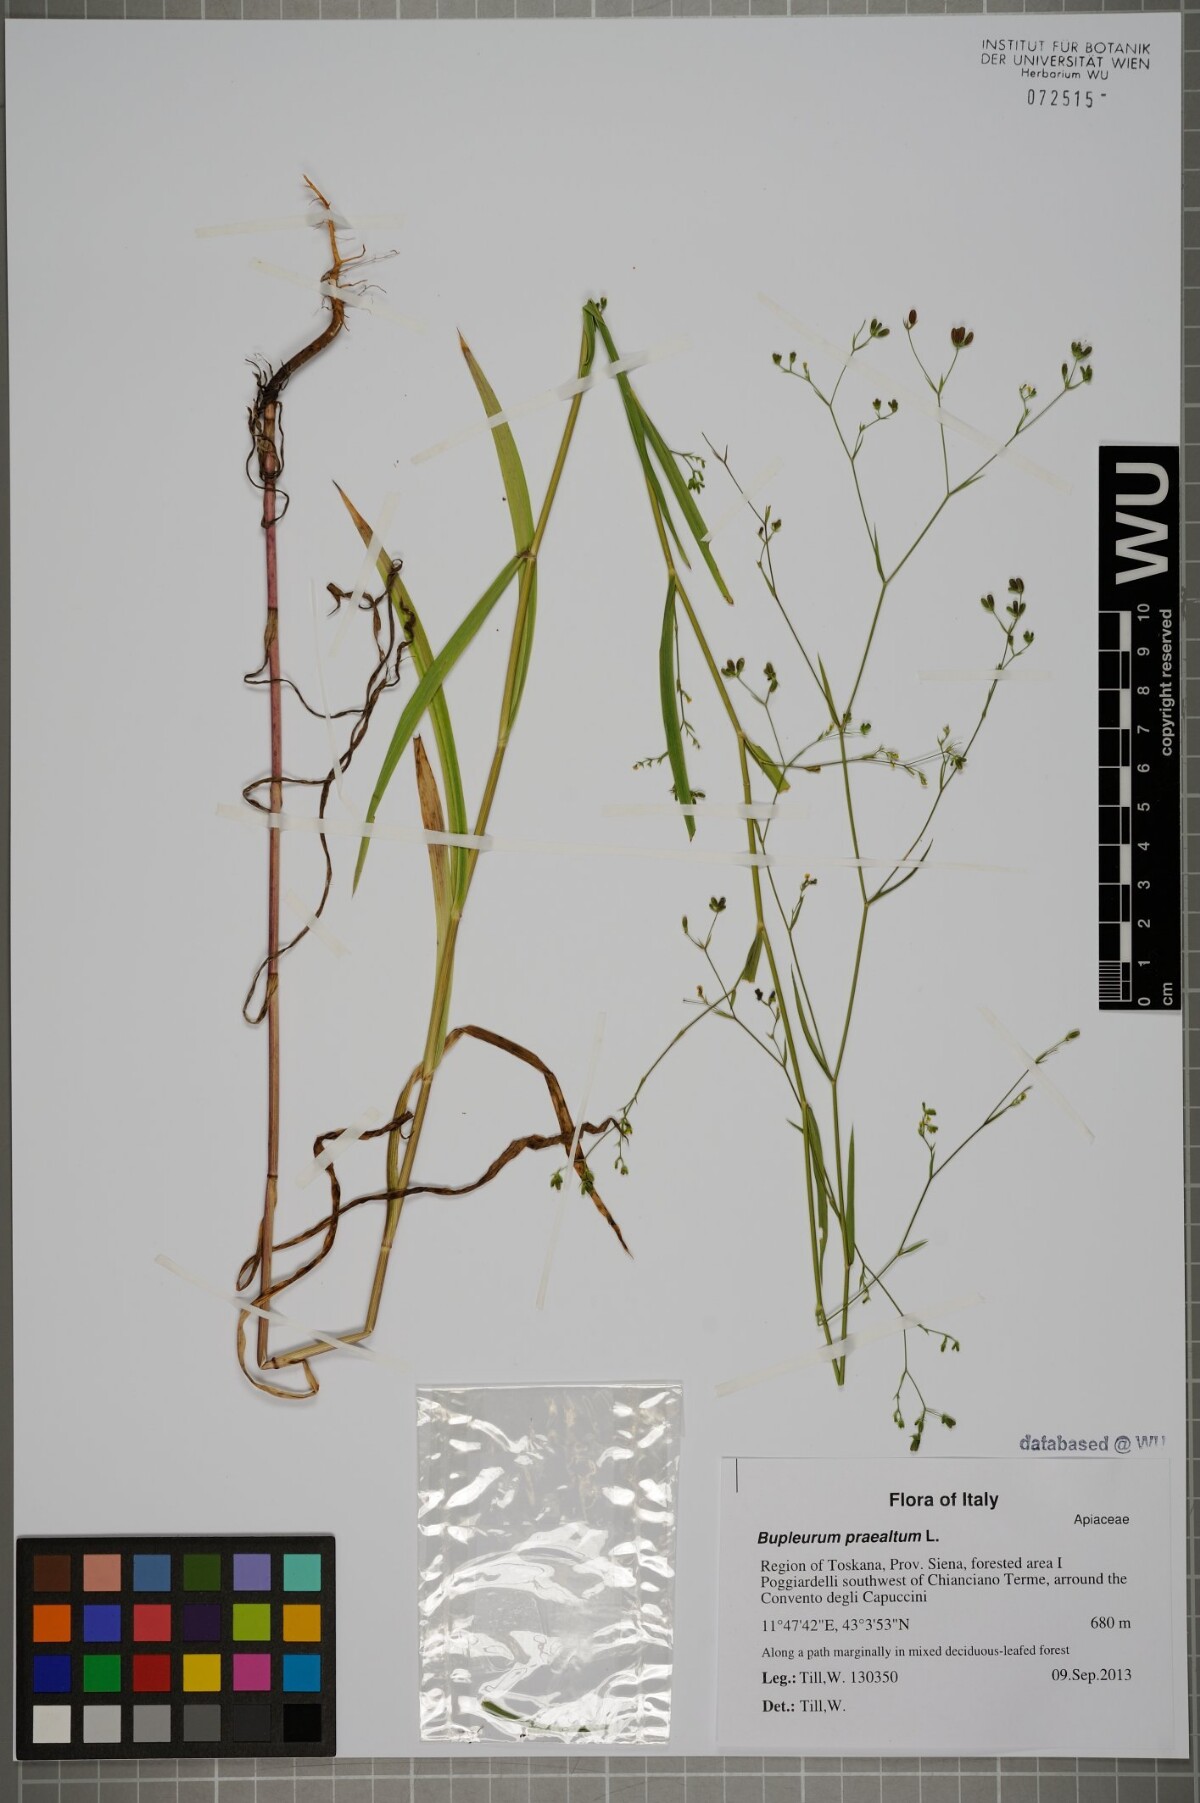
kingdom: Plantae
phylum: Tracheophyta
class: Magnoliopsida
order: Apiales
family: Apiaceae
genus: Bupleurum
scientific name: Bupleurum praealtum
